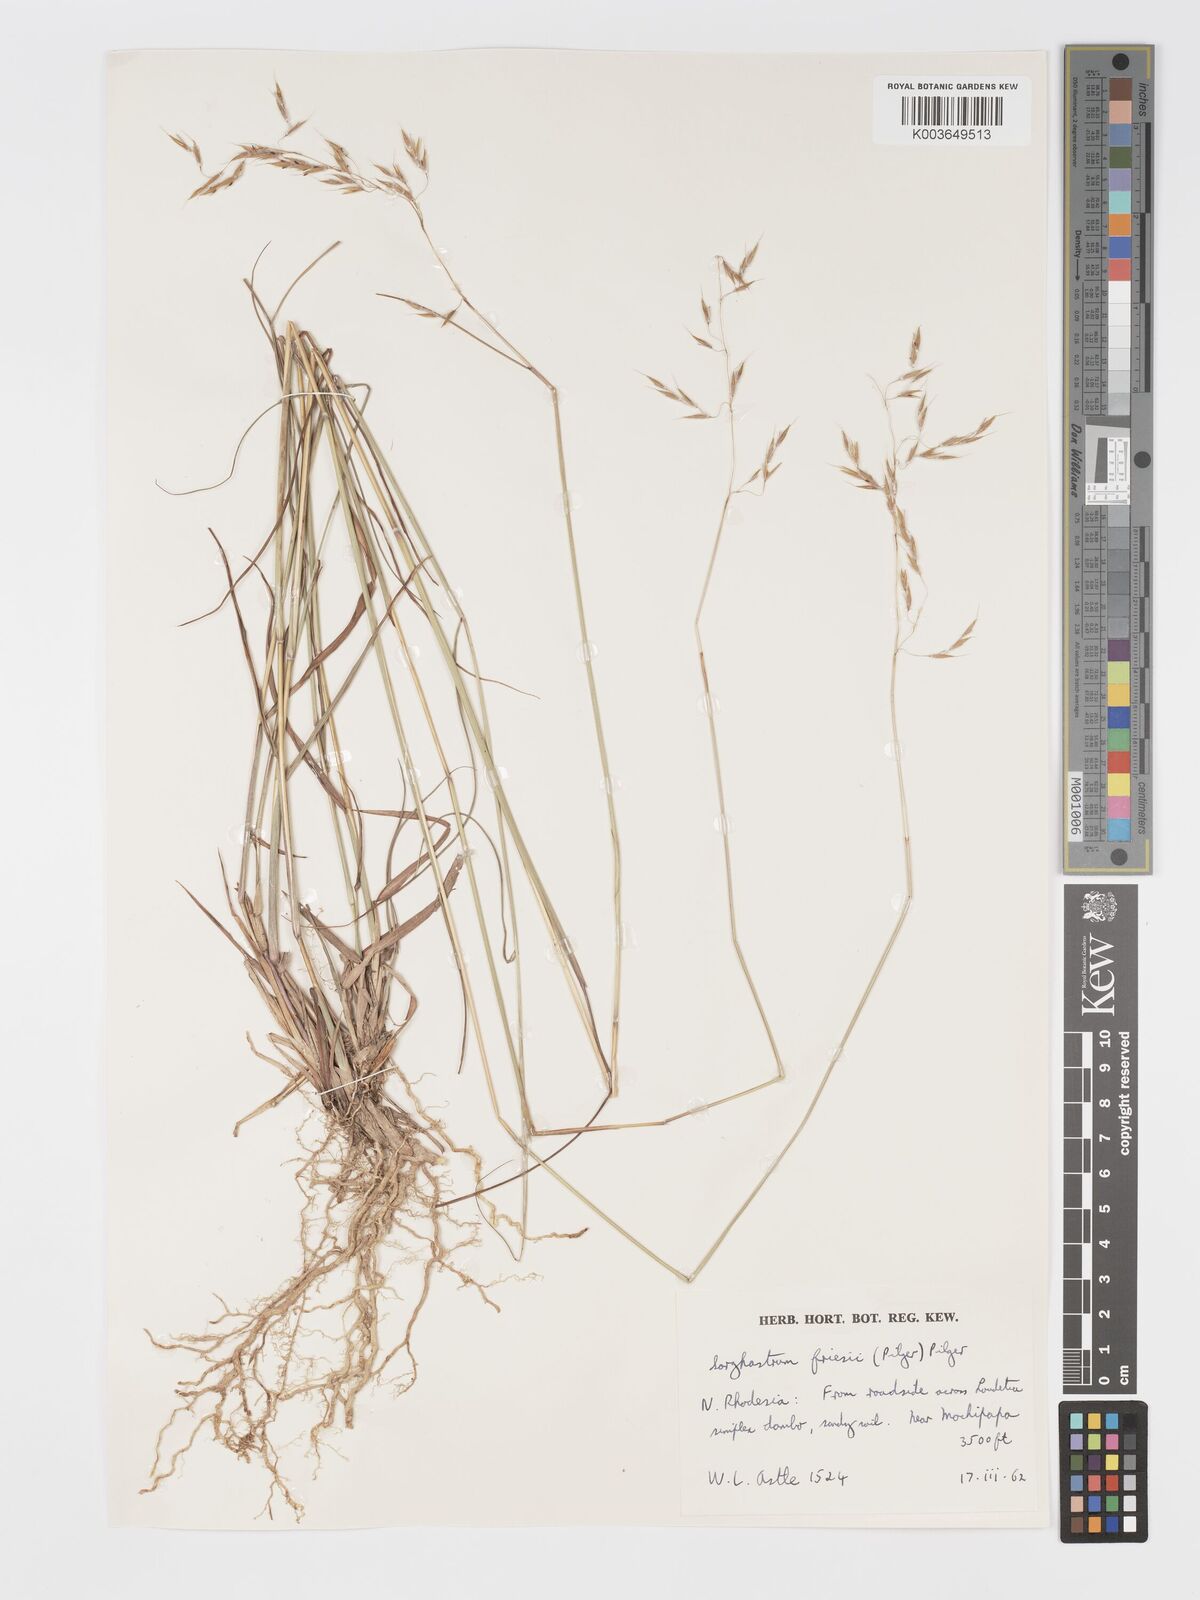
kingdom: Plantae
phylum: Tracheophyta
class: Liliopsida
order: Poales
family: Poaceae
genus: Sorghastrum
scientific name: Sorghastrum nudipes
